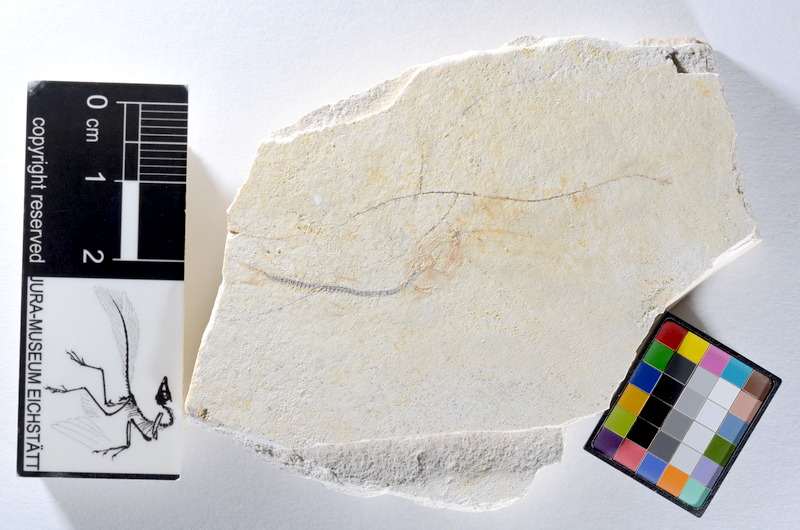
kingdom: Animalia
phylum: Chordata
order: Salmoniformes
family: Orthogonikleithridae
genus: Orthogonikleithrus
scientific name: Orthogonikleithrus hoelli
